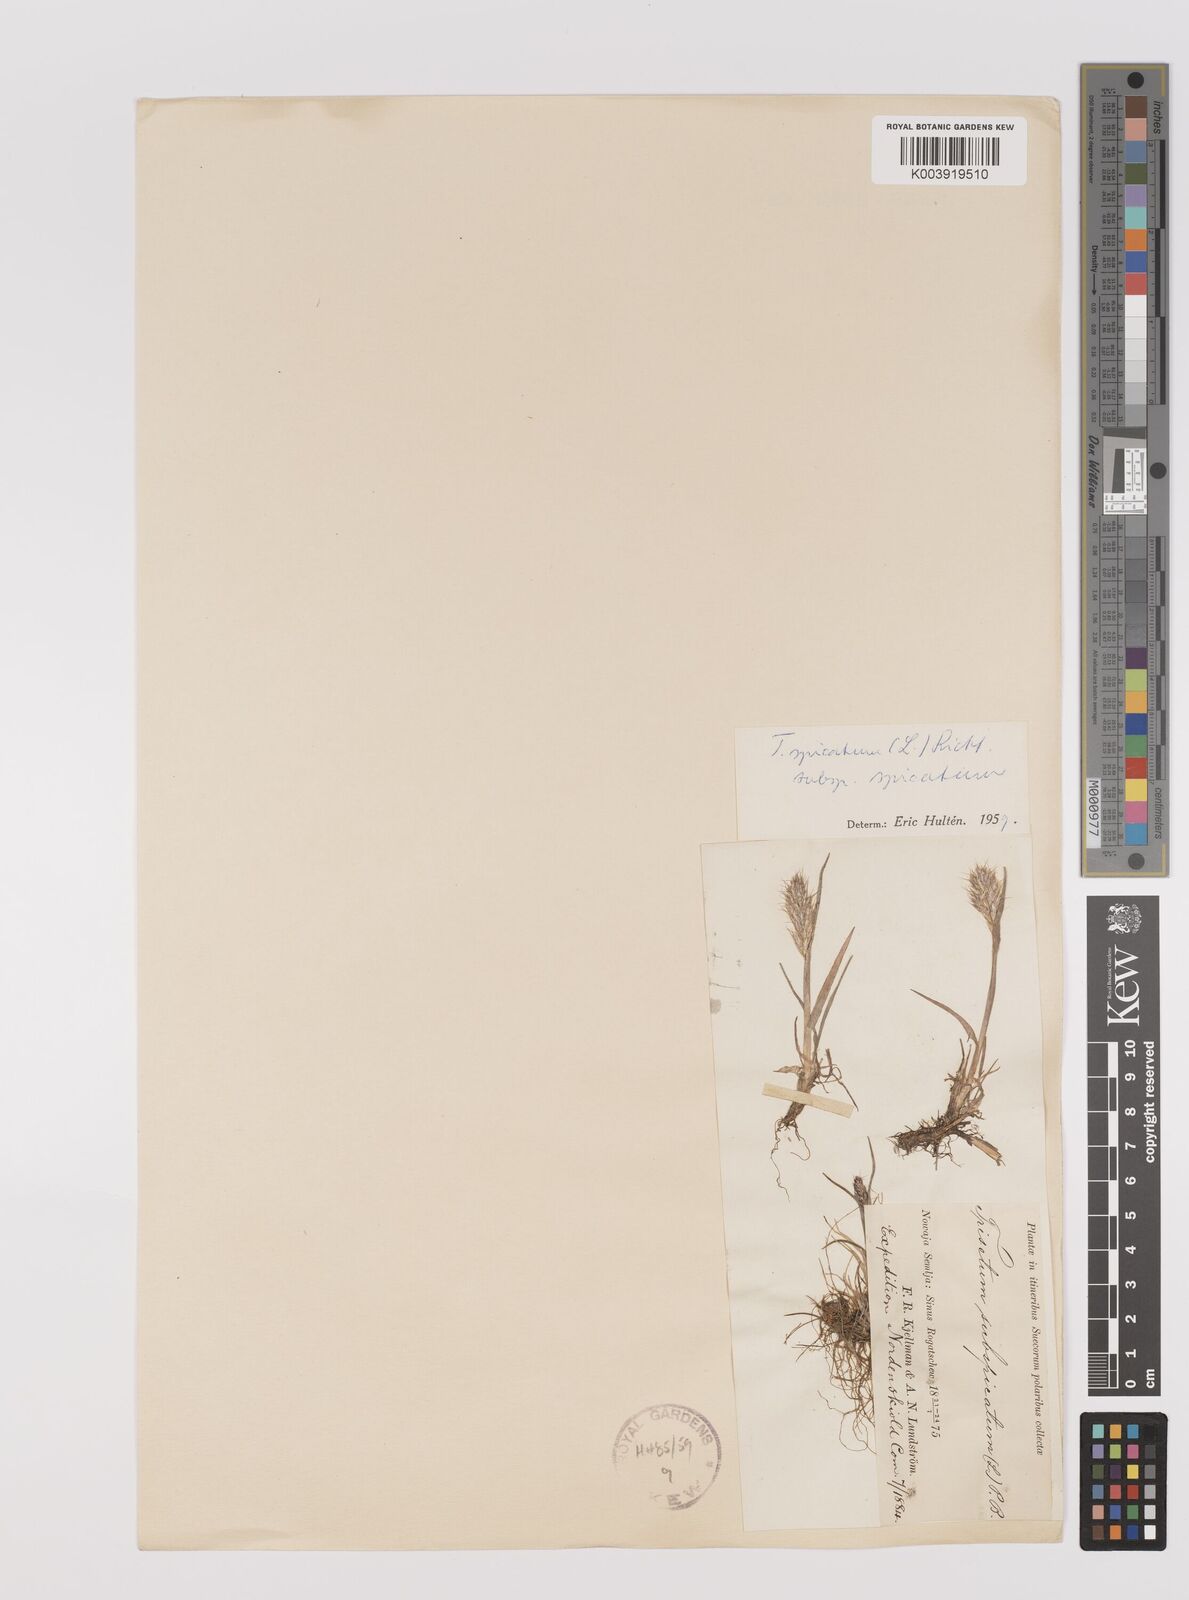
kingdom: Plantae
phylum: Tracheophyta
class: Liliopsida
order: Poales
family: Poaceae
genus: Koeleria
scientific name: Koeleria spicata
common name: Mountain trisetum
